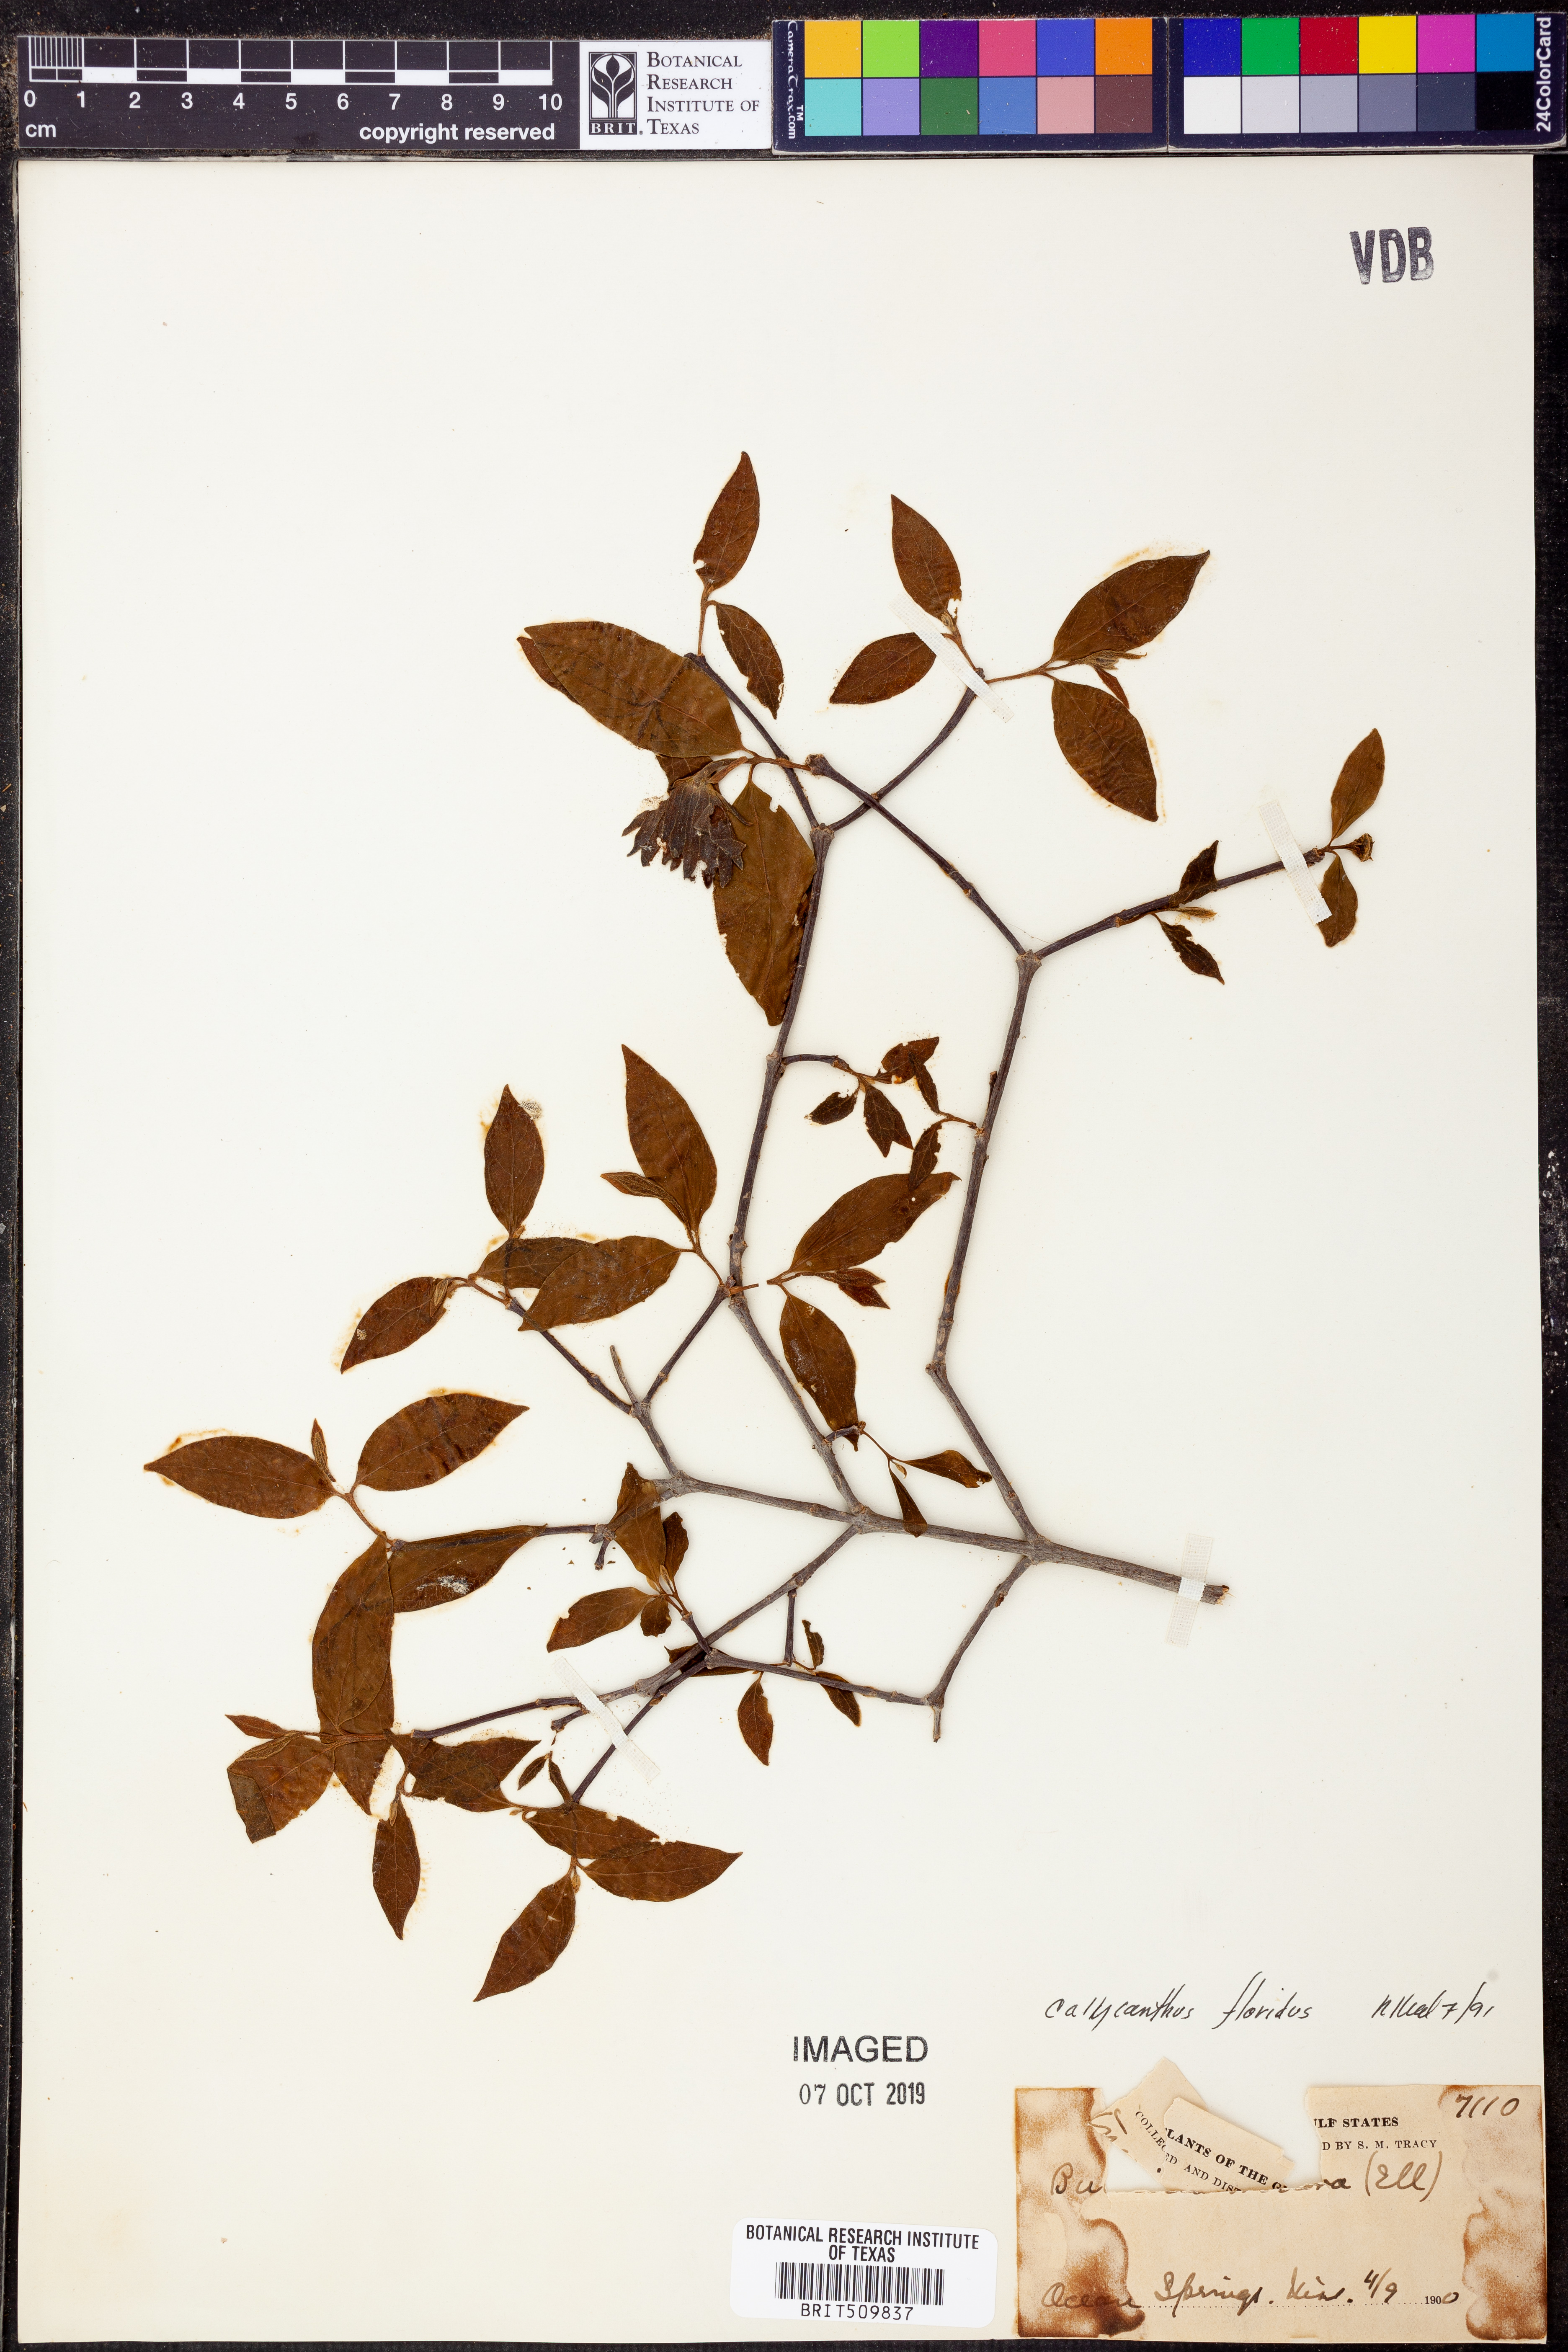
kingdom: Plantae
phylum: Tracheophyta
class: Magnoliopsida
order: Laurales
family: Calycanthaceae
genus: Calycanthus
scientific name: Calycanthus floridus
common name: Carolina-allspice
